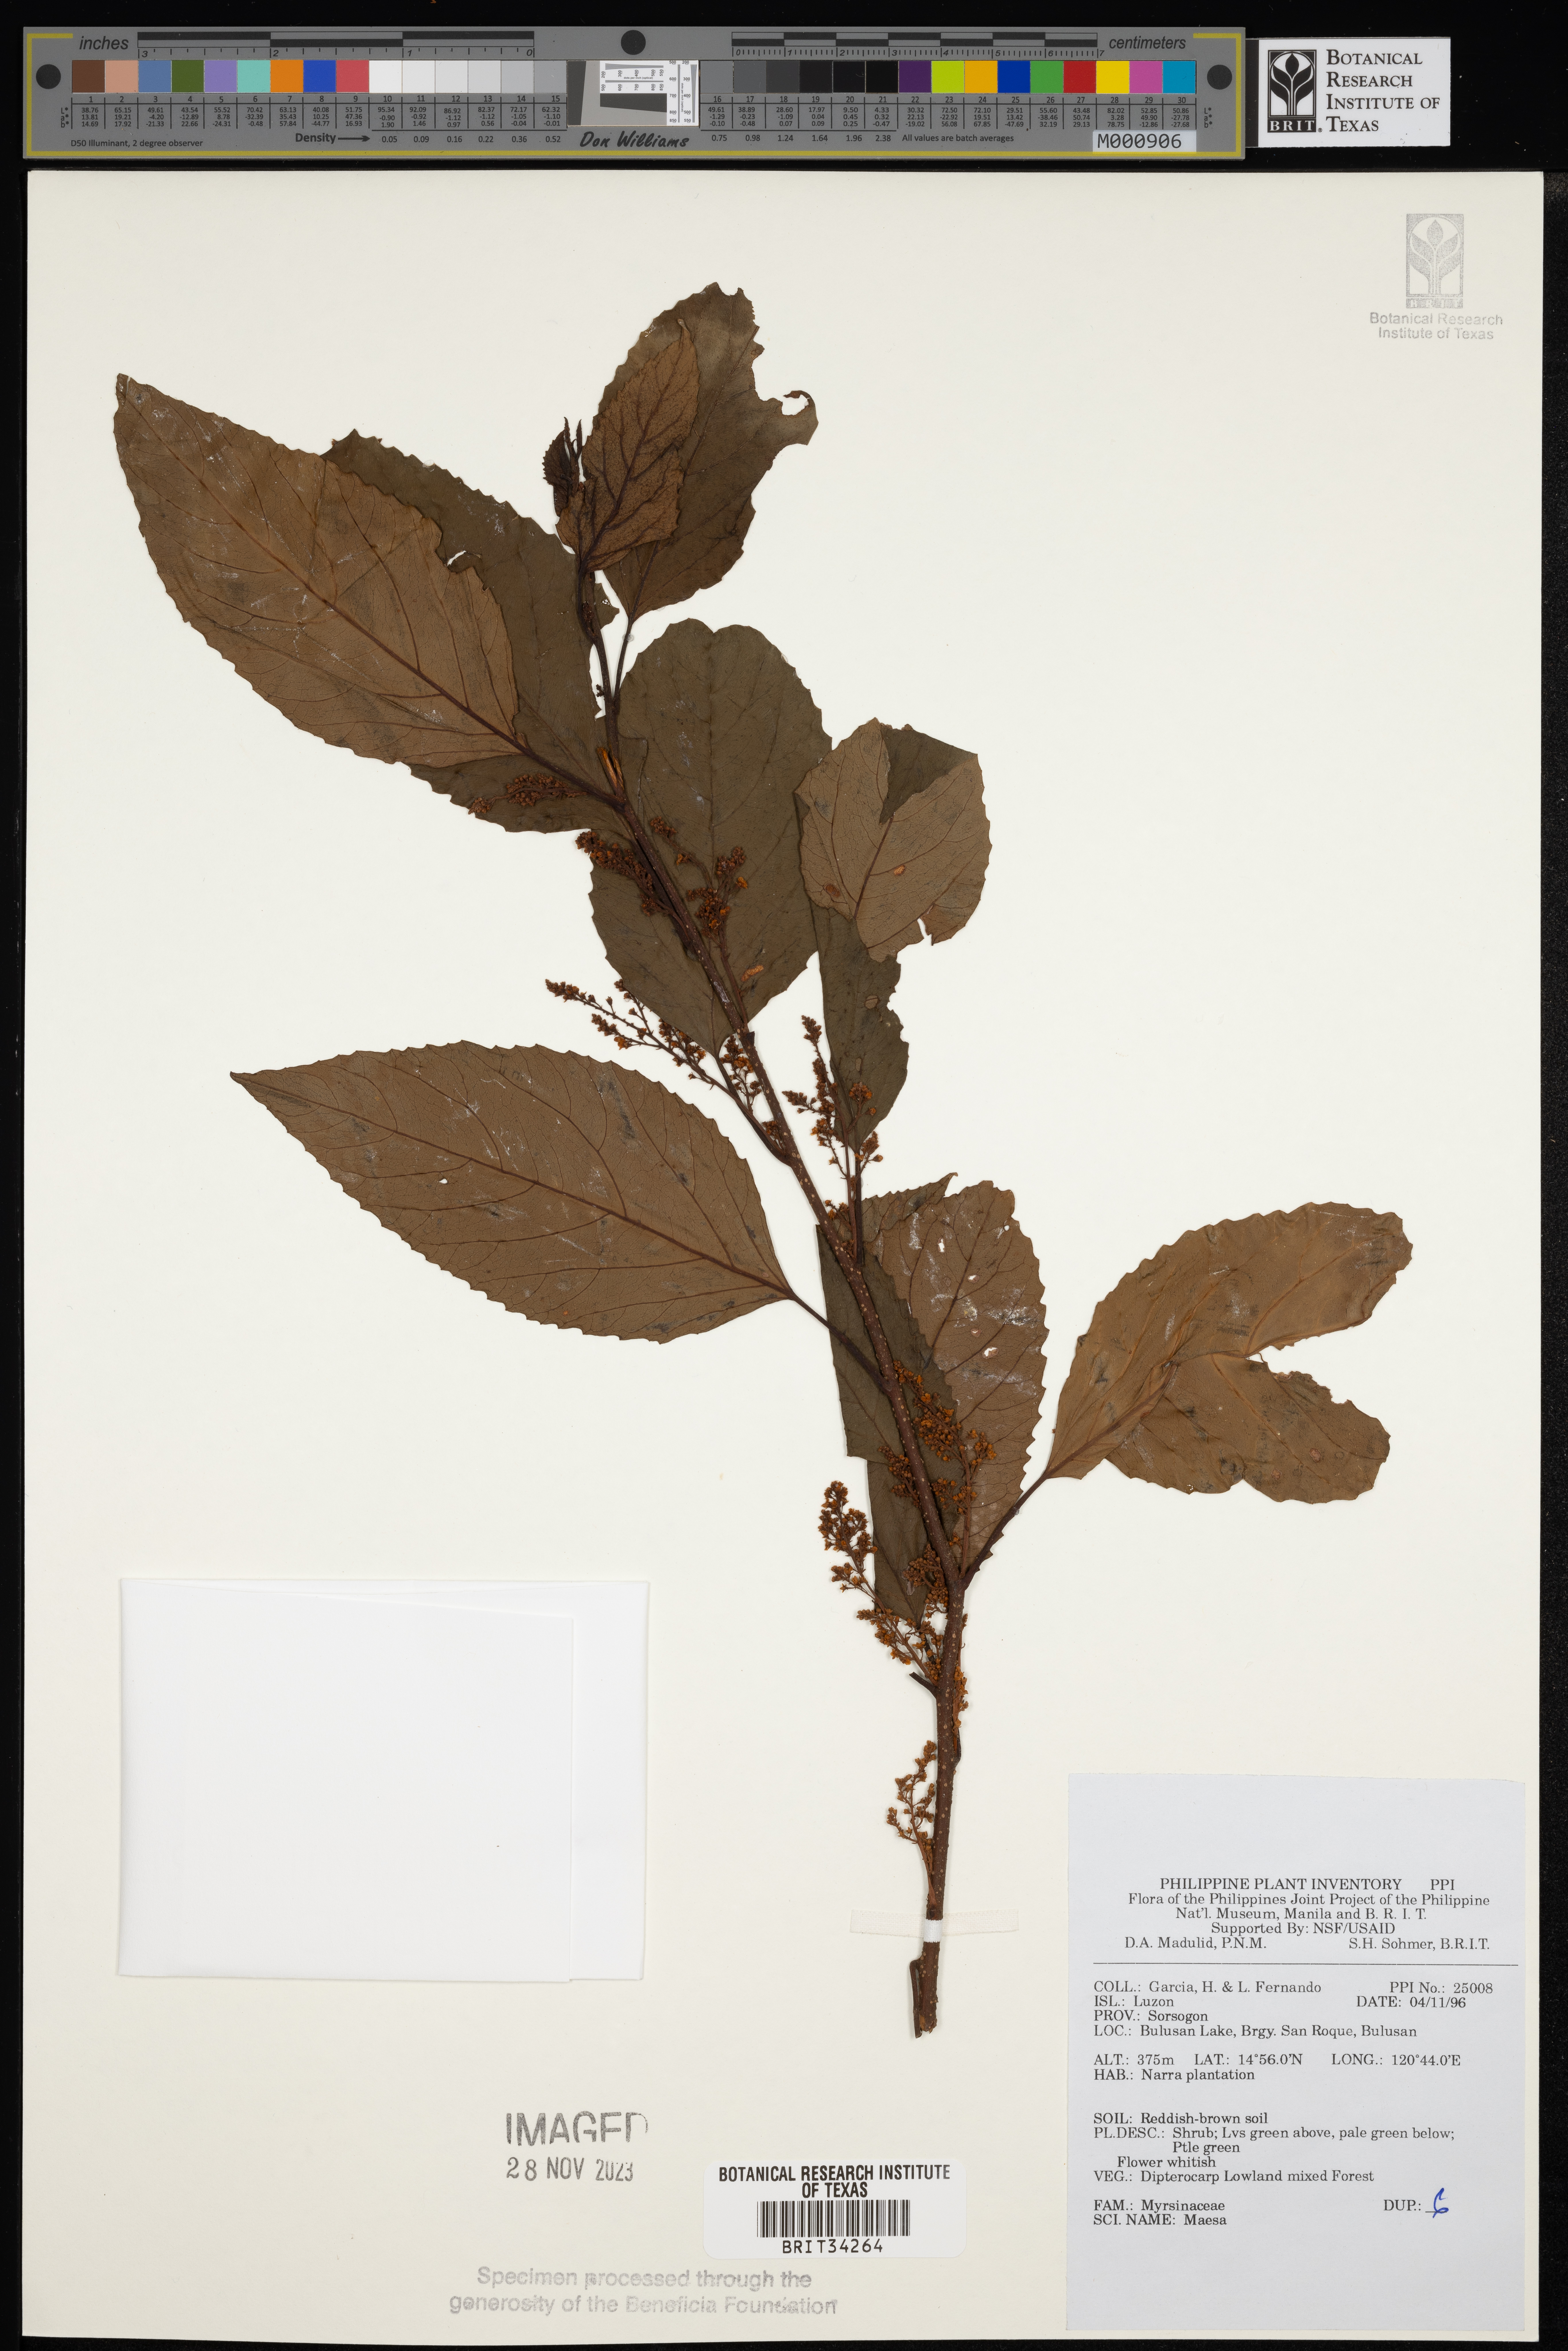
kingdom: Plantae
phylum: Tracheophyta
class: Magnoliopsida
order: Ericales
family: Primulaceae
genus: Maesa
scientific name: Maesa
